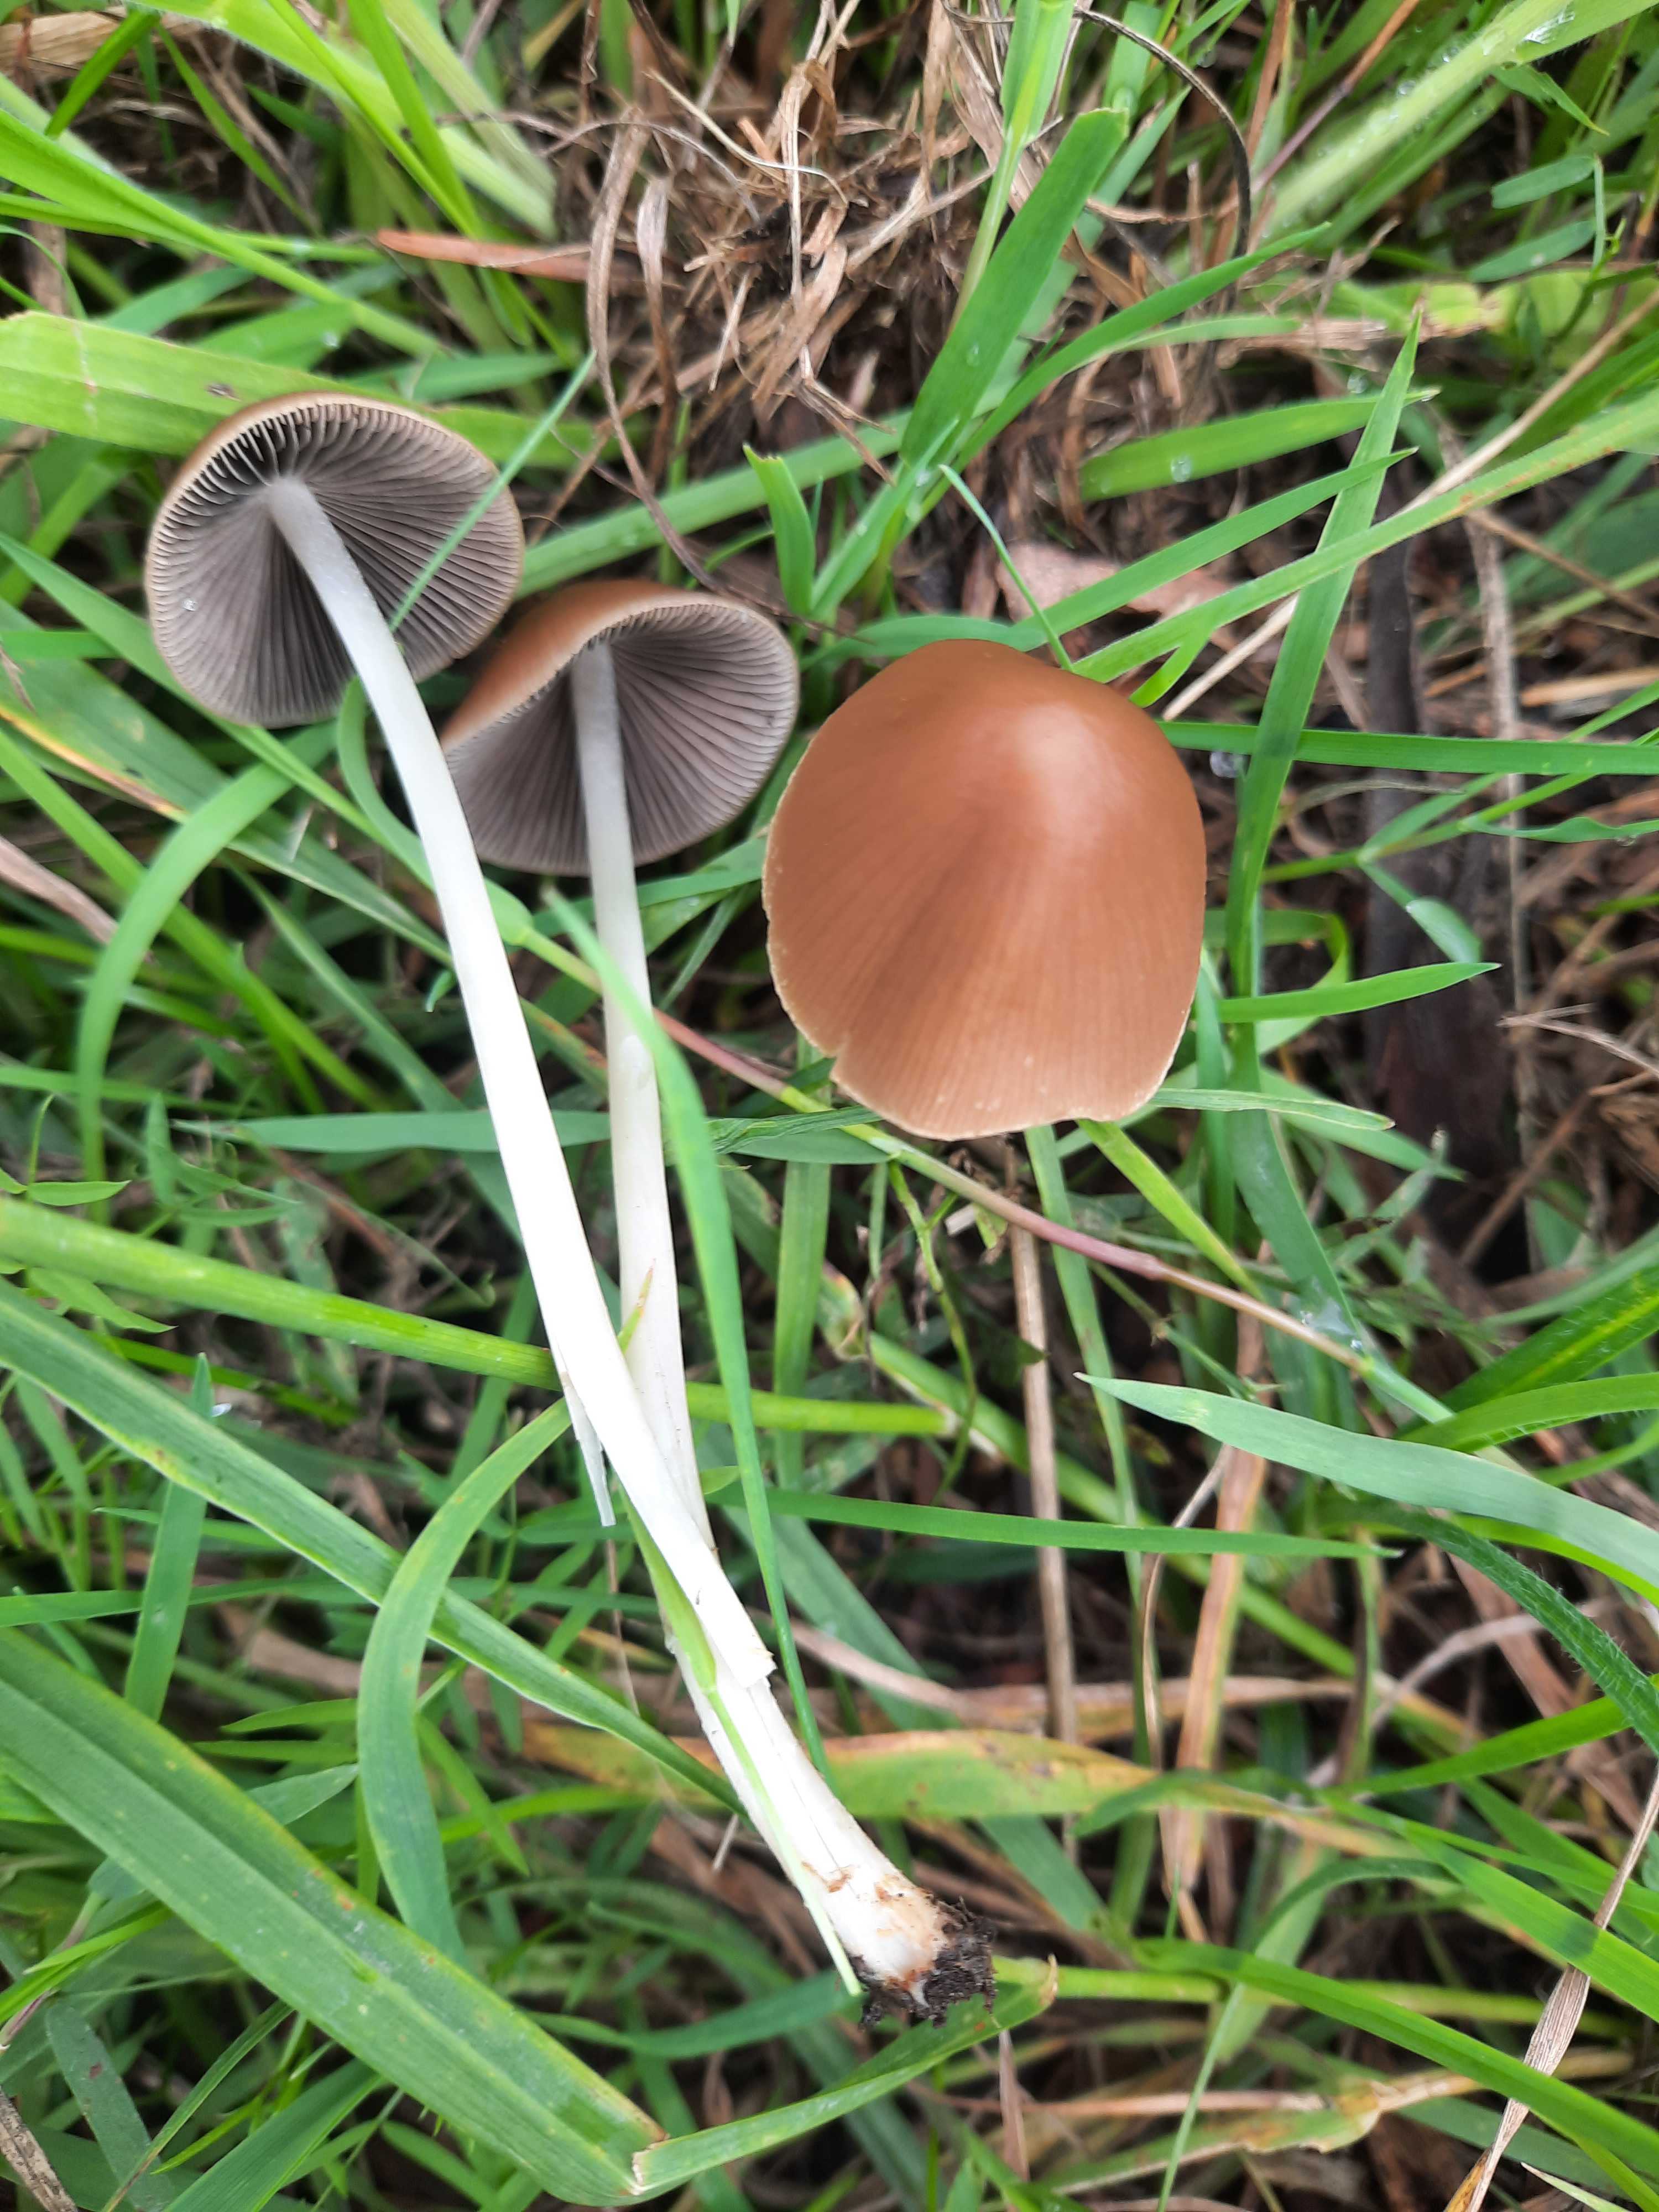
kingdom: Fungi
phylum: Basidiomycota
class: Agaricomycetes
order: Agaricales
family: Psathyrellaceae
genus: Parasola
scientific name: Parasola conopilea
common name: kegle-hjulhat
